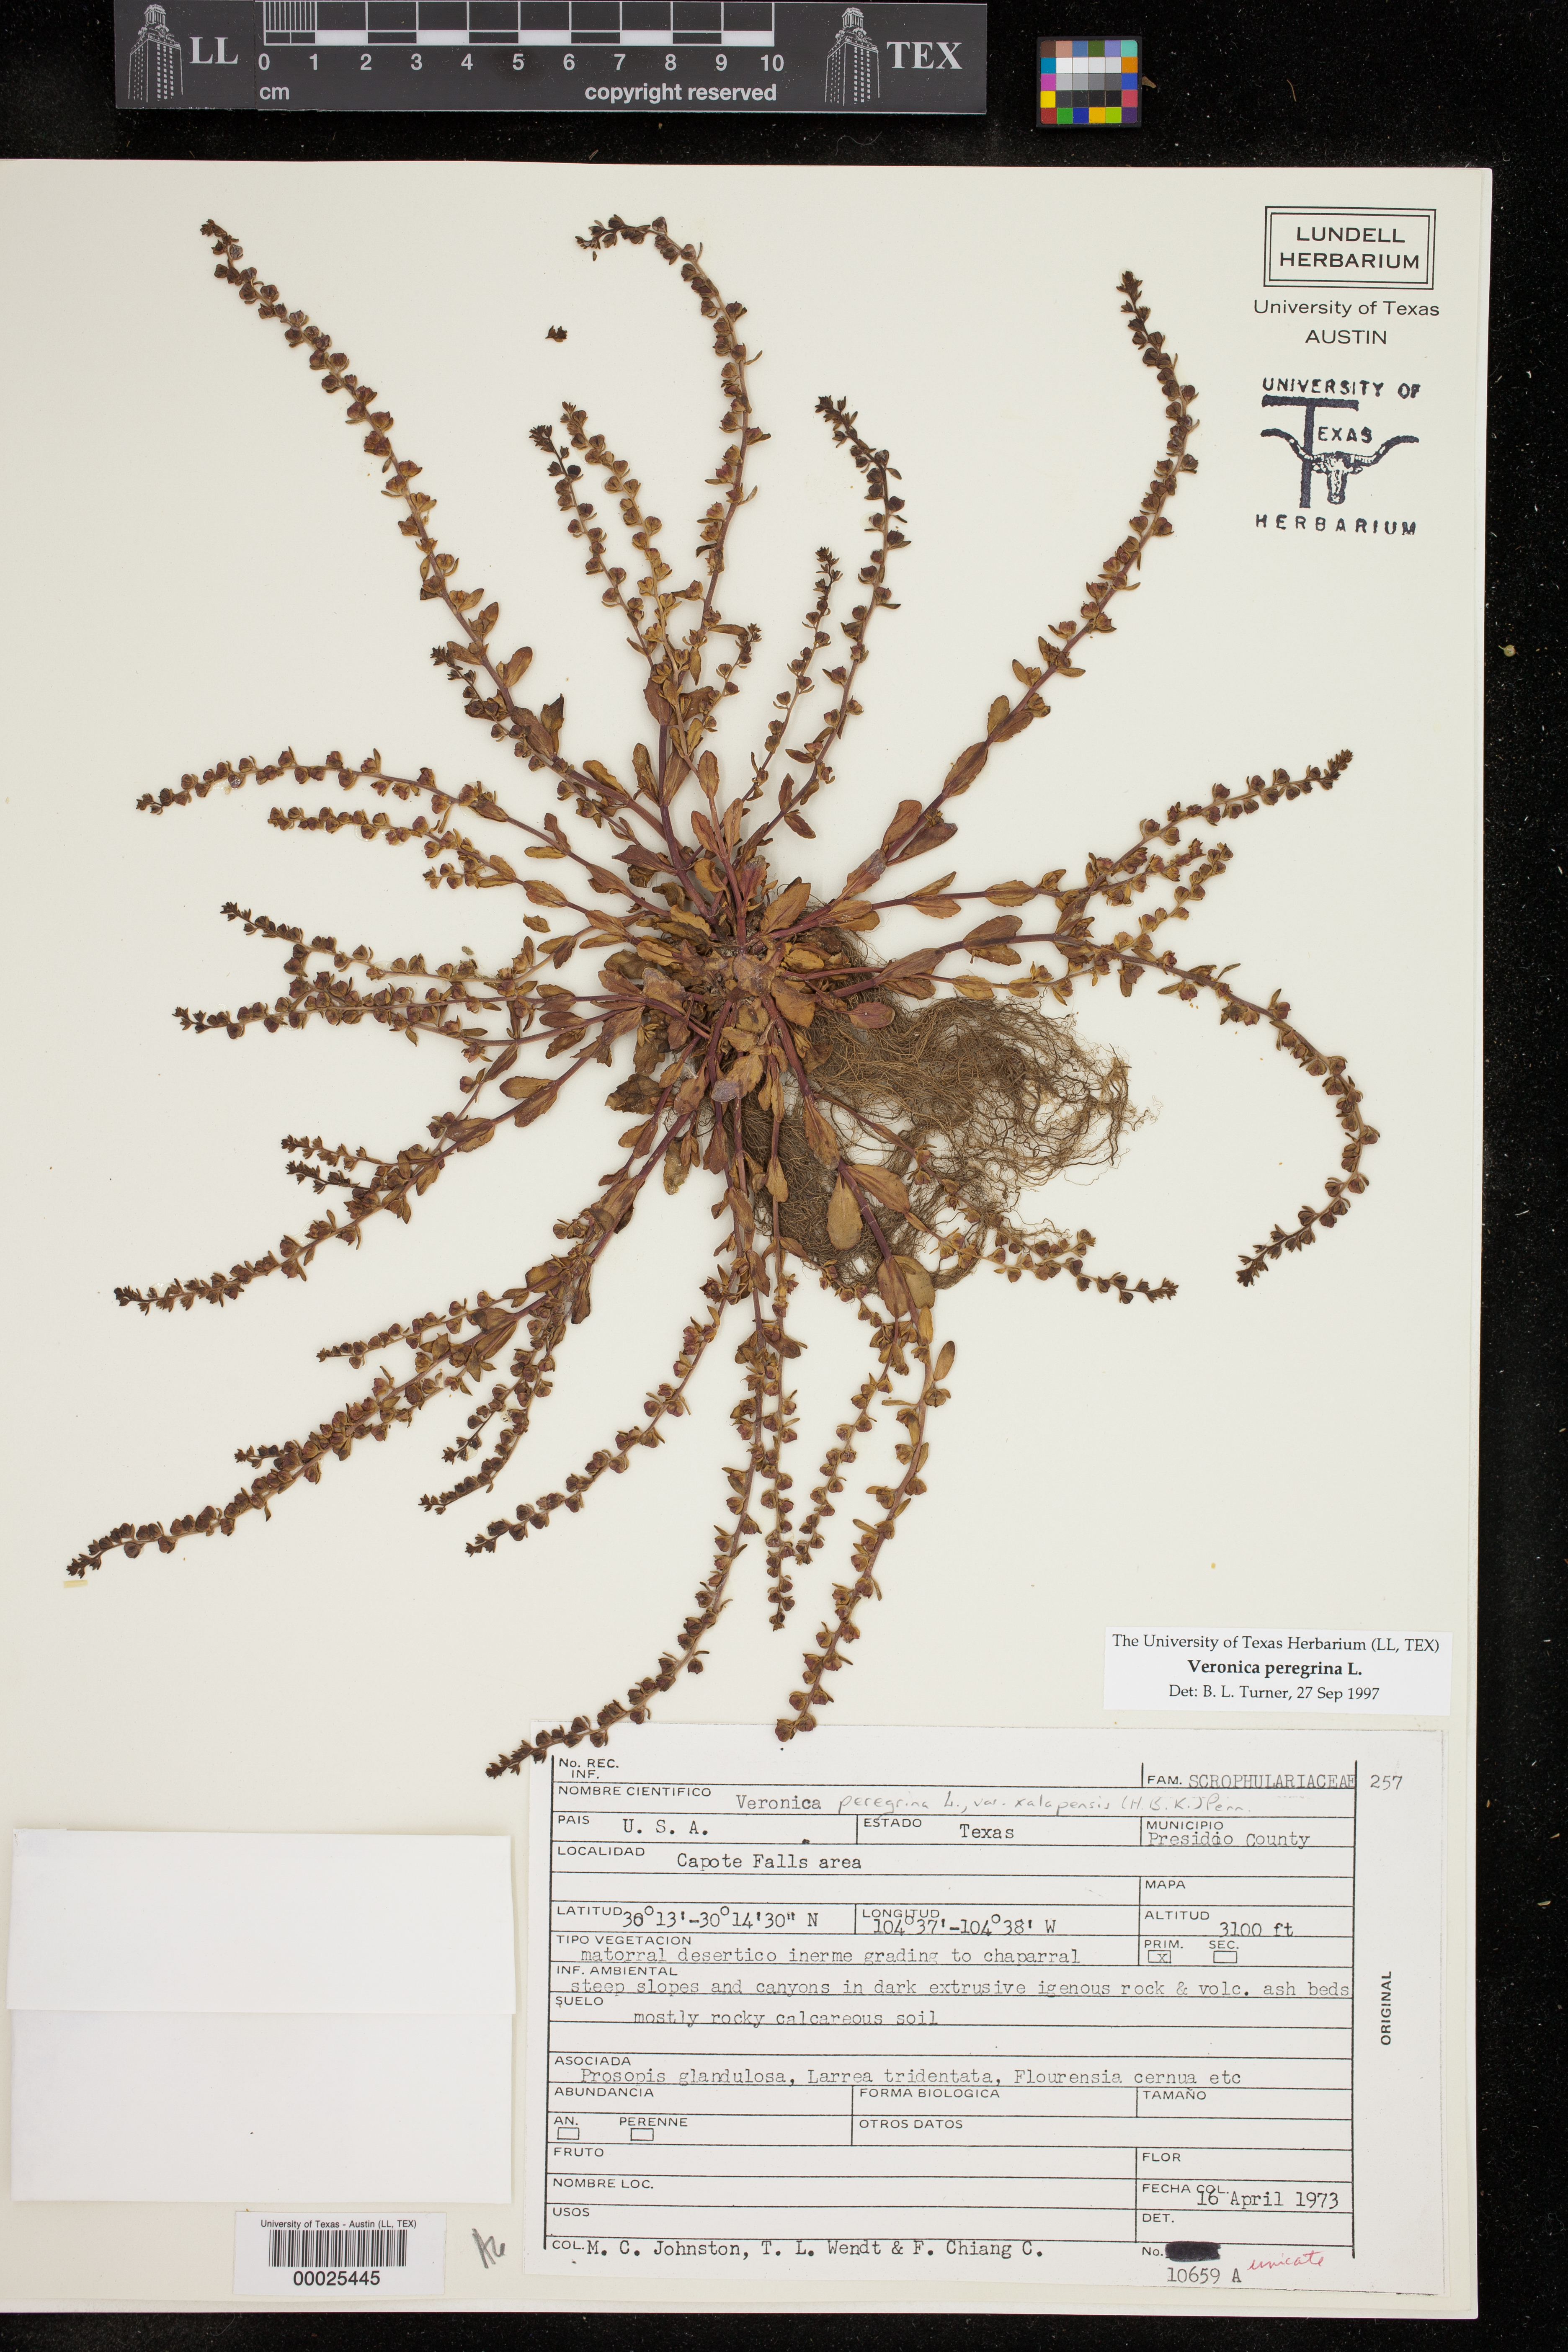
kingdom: Plantae
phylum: Tracheophyta
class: Magnoliopsida
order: Lamiales
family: Plantaginaceae
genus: Veronica
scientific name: Veronica peregrina
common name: Neckweed
